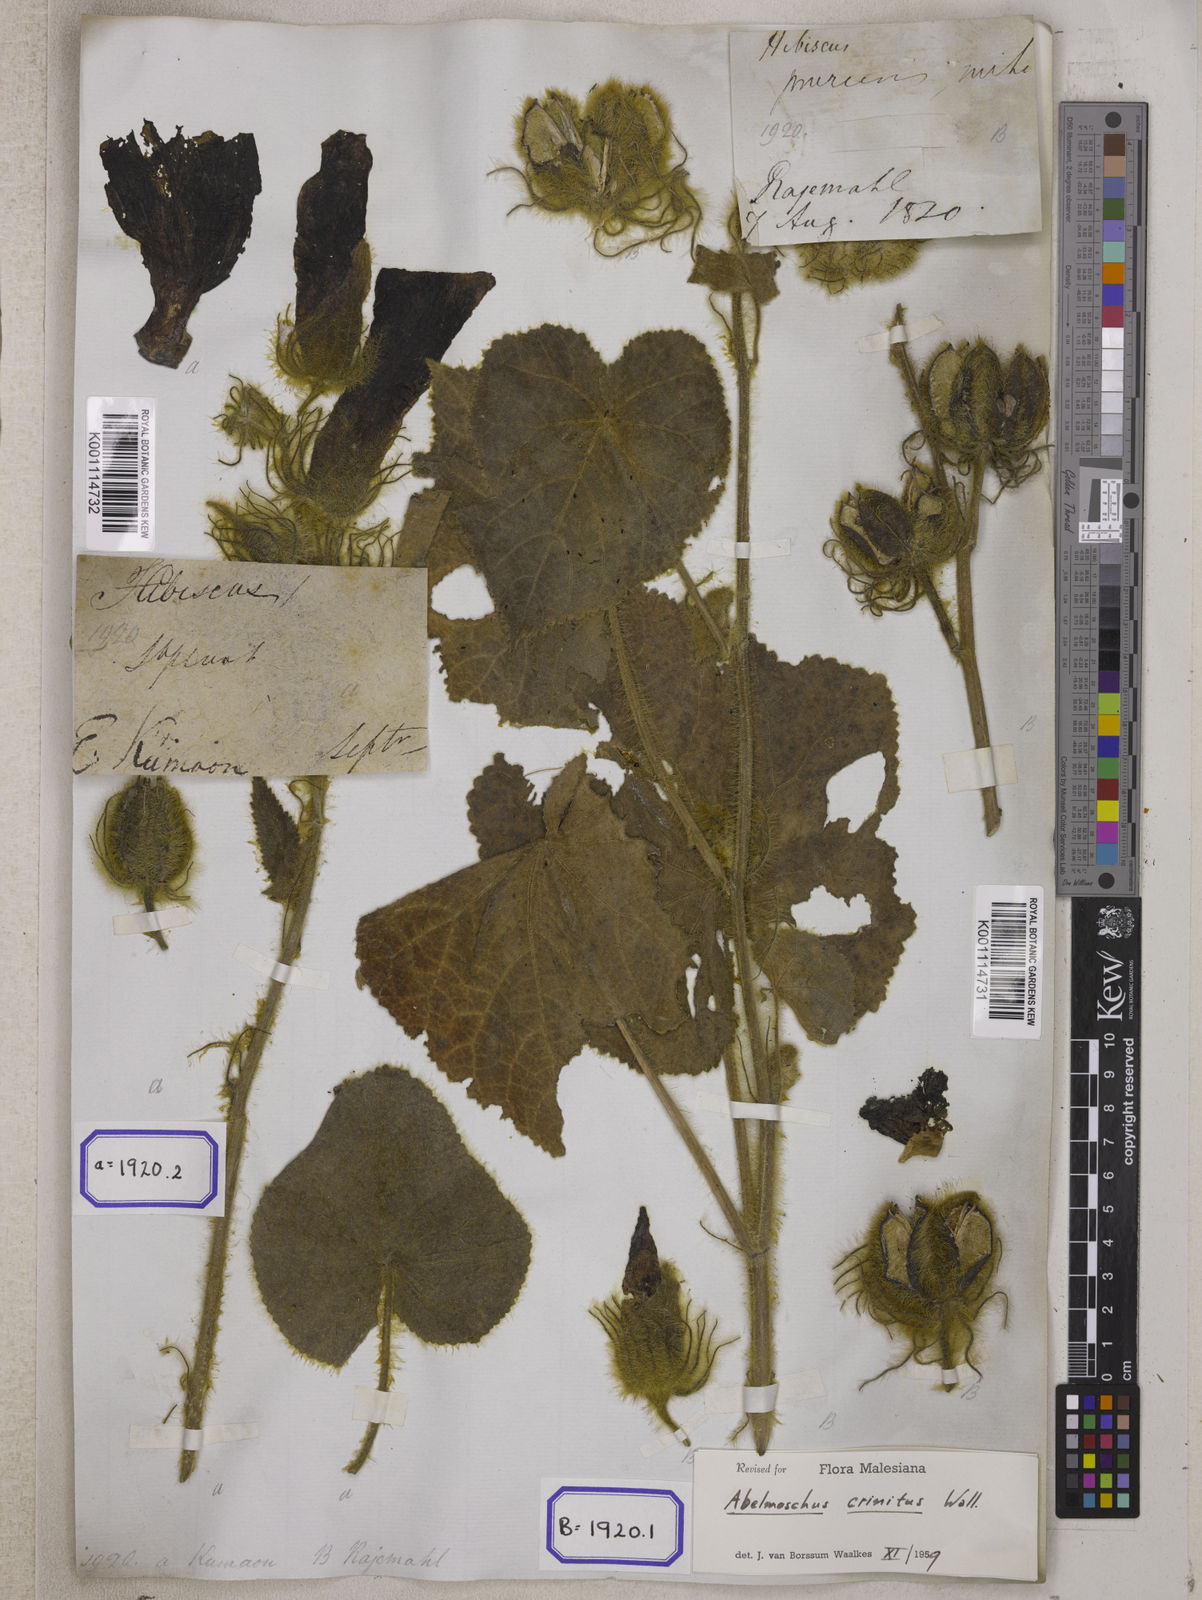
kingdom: Plantae
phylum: Tracheophyta
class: Magnoliopsida
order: Malvales
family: Malvaceae
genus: Bamia
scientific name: Bamia
